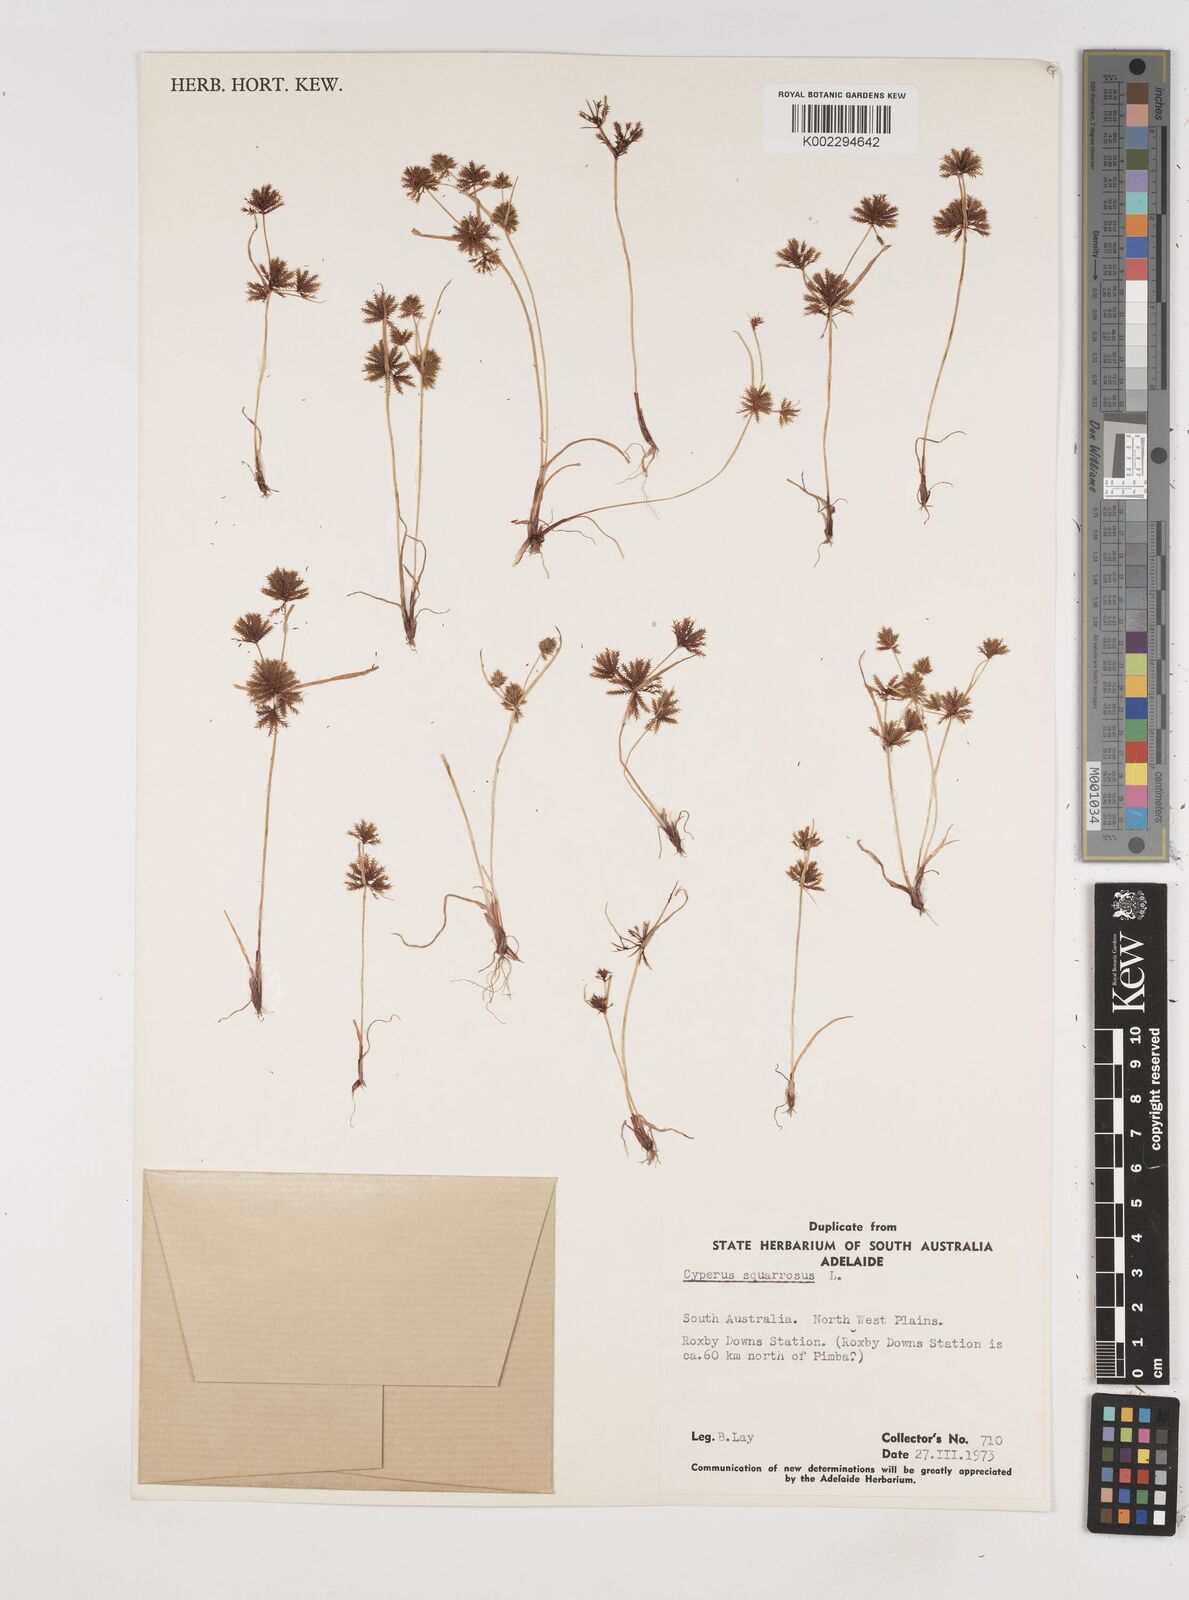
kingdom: Plantae
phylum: Tracheophyta
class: Liliopsida
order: Poales
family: Cyperaceae
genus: Cyperus
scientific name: Cyperus squarrosus
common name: Awned cyperus
